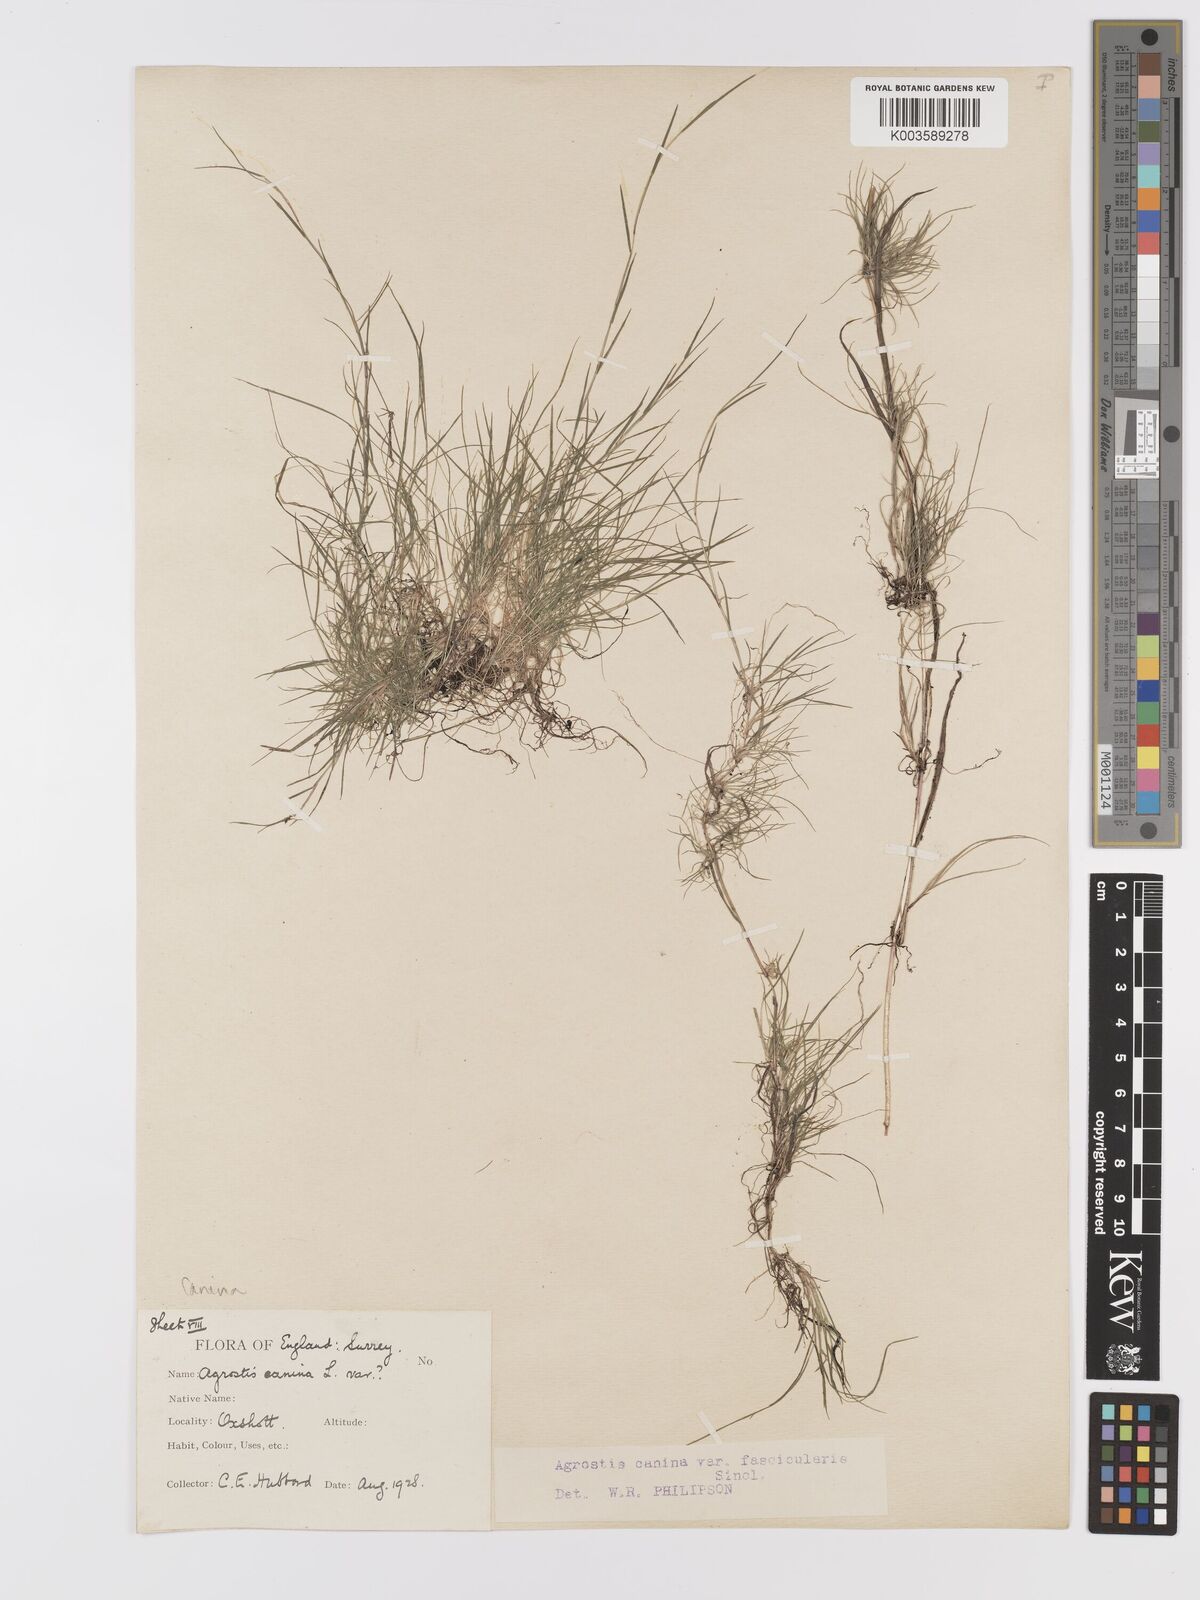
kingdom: Plantae
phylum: Tracheophyta
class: Liliopsida
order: Poales
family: Poaceae
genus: Agrostis
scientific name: Agrostis canina
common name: Velvet bent
